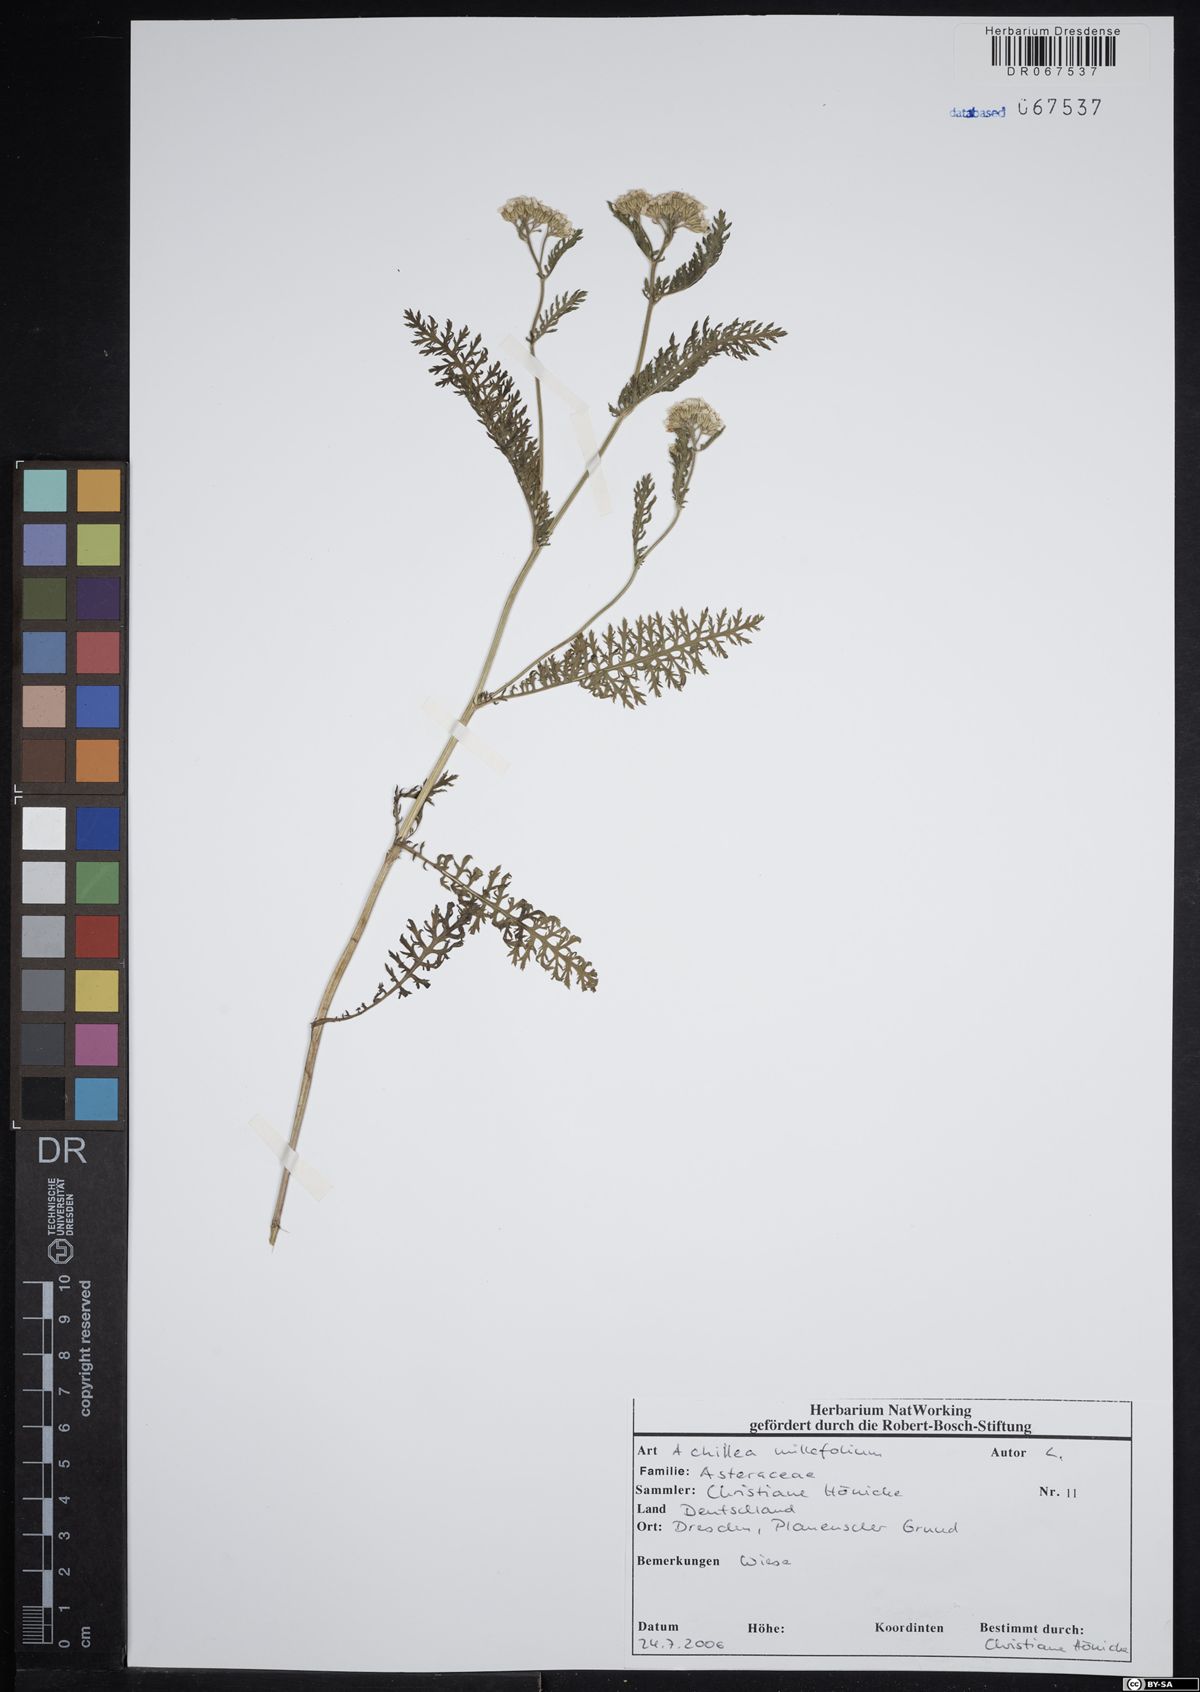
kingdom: Plantae
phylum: Tracheophyta
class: Magnoliopsida
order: Asterales
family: Asteraceae
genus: Achillea
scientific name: Achillea millefolium
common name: Yarrow
